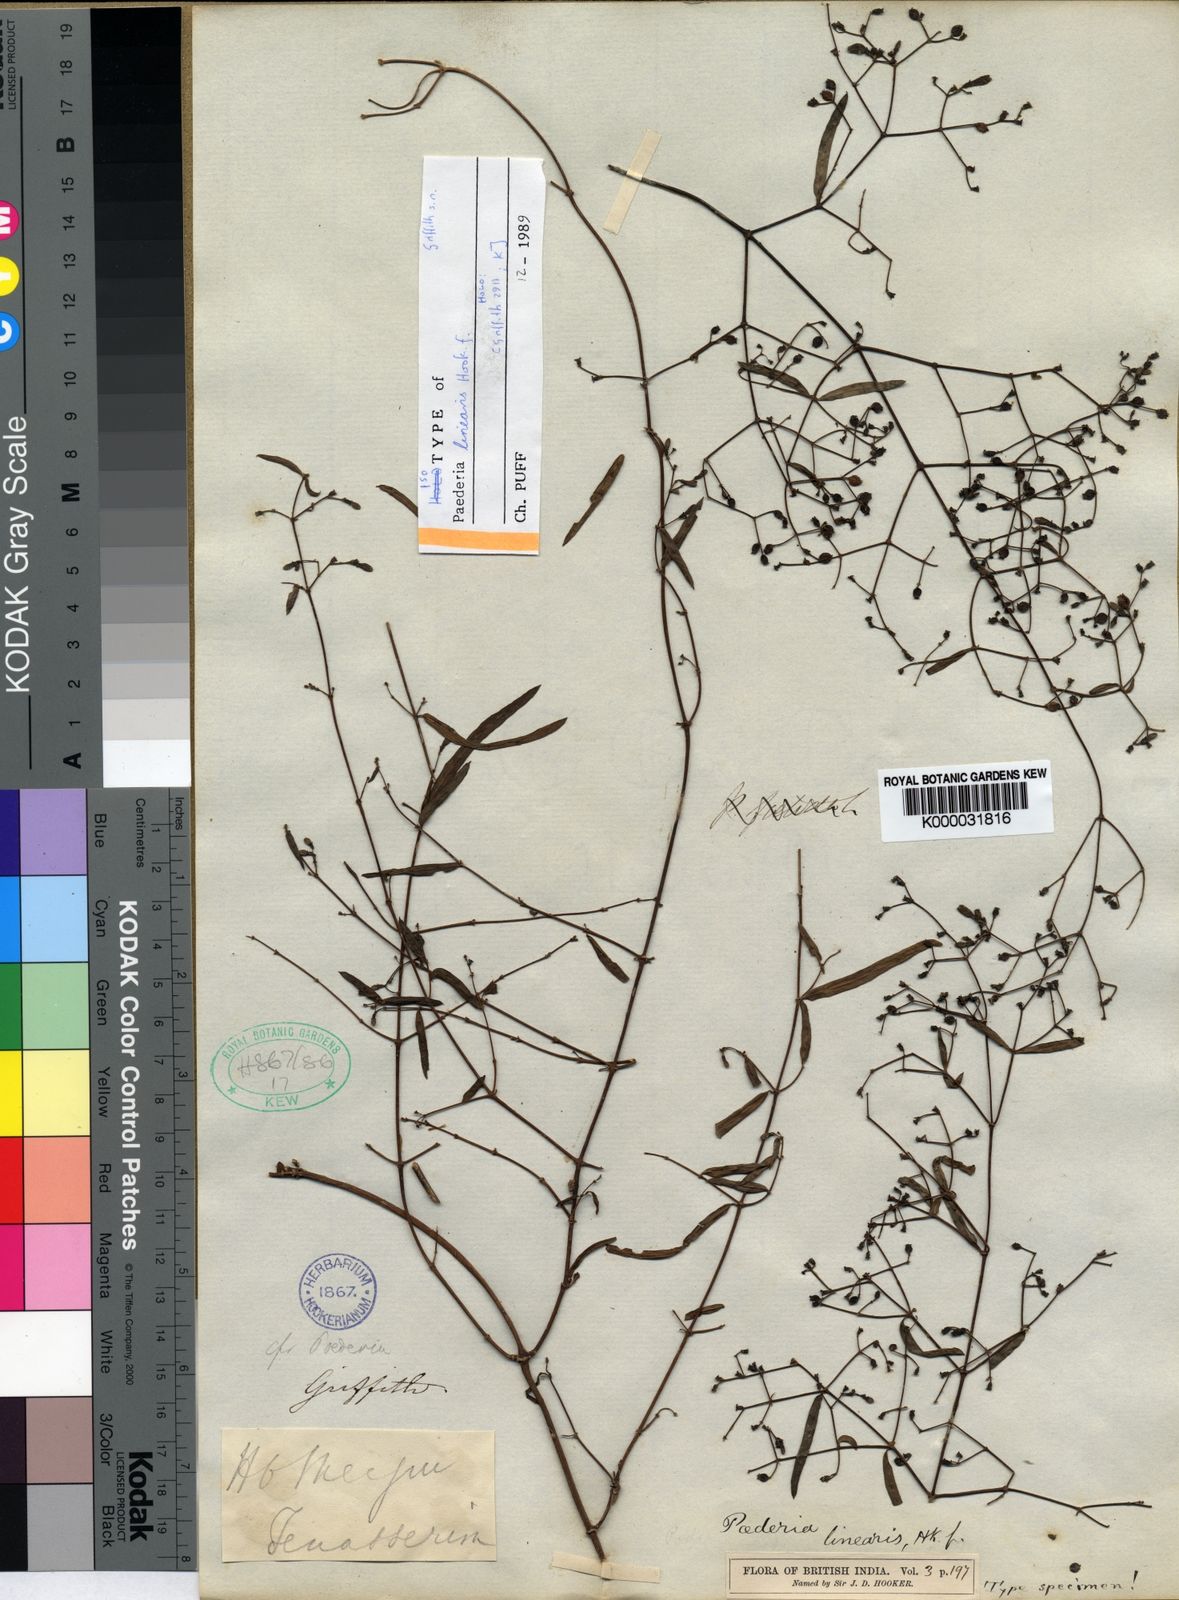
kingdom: Plantae
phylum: Tracheophyta
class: Magnoliopsida
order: Gentianales
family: Rubiaceae
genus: Paederia
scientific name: Paederia linearis
